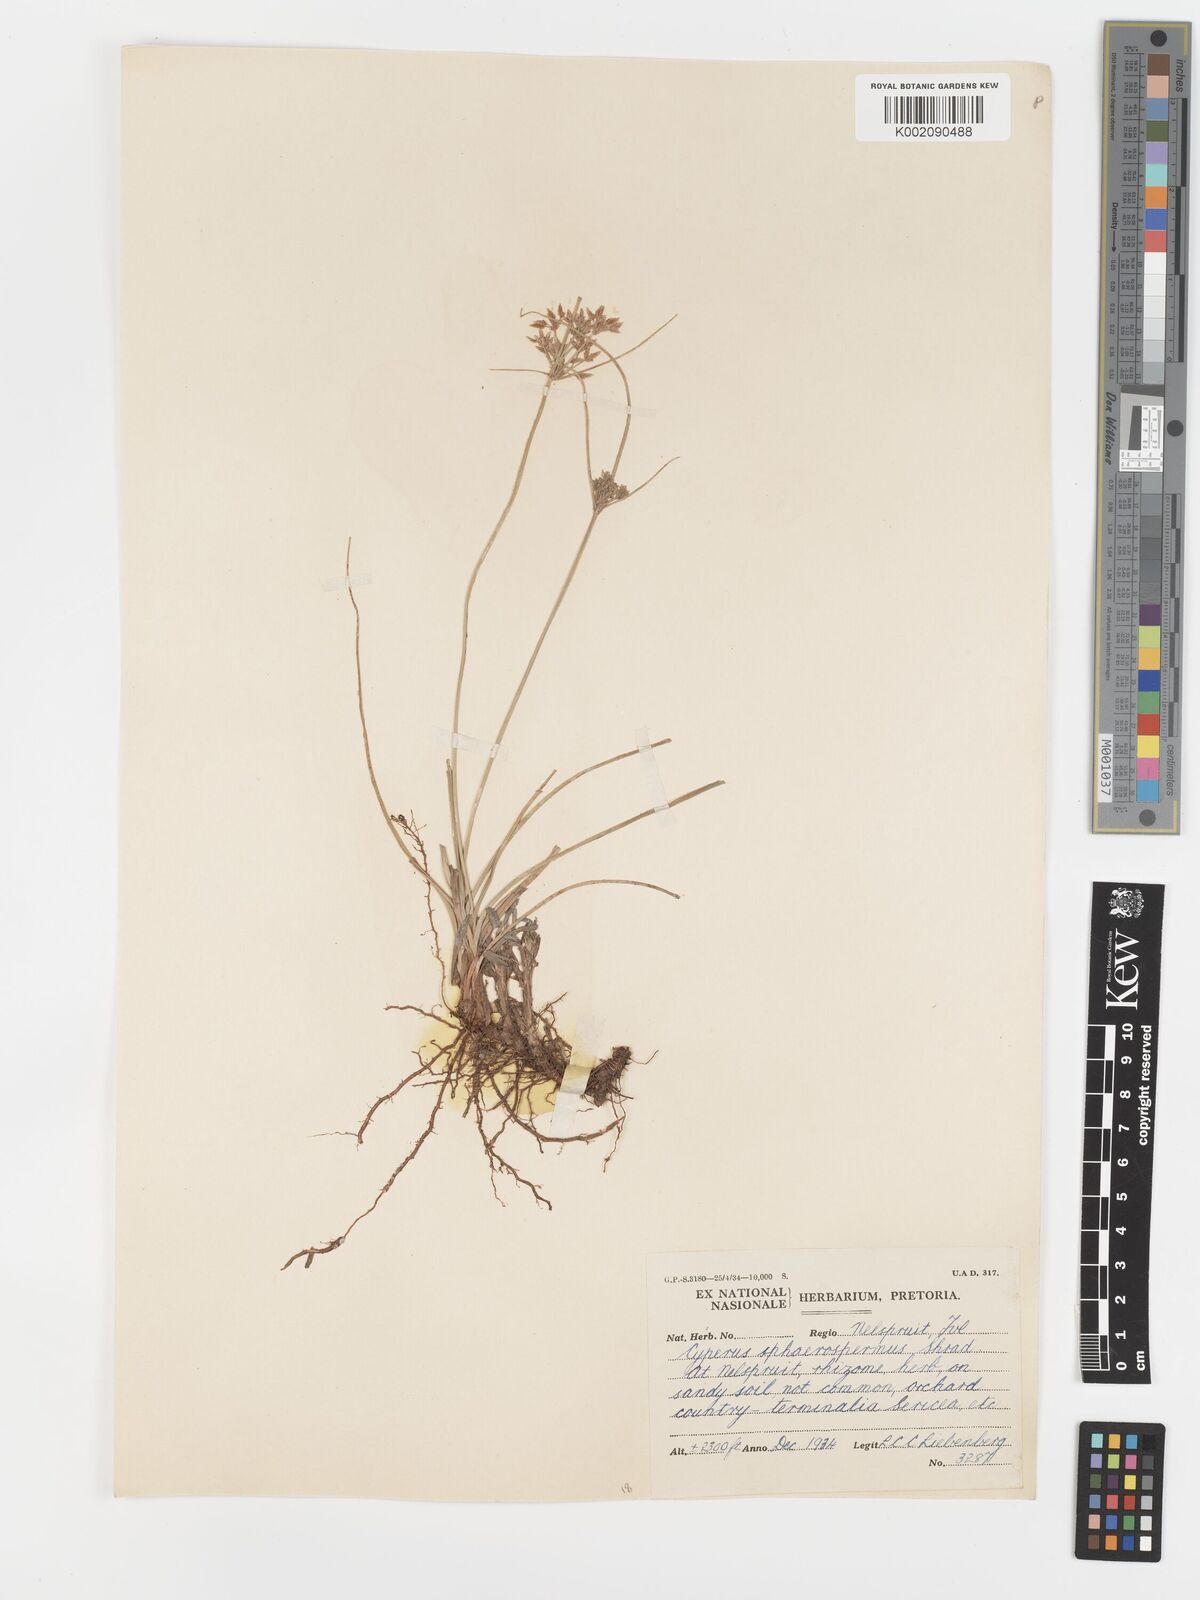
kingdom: Plantae
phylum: Tracheophyta
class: Liliopsida
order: Poales
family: Cyperaceae
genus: Cyperus
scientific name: Cyperus sphaerospermus
